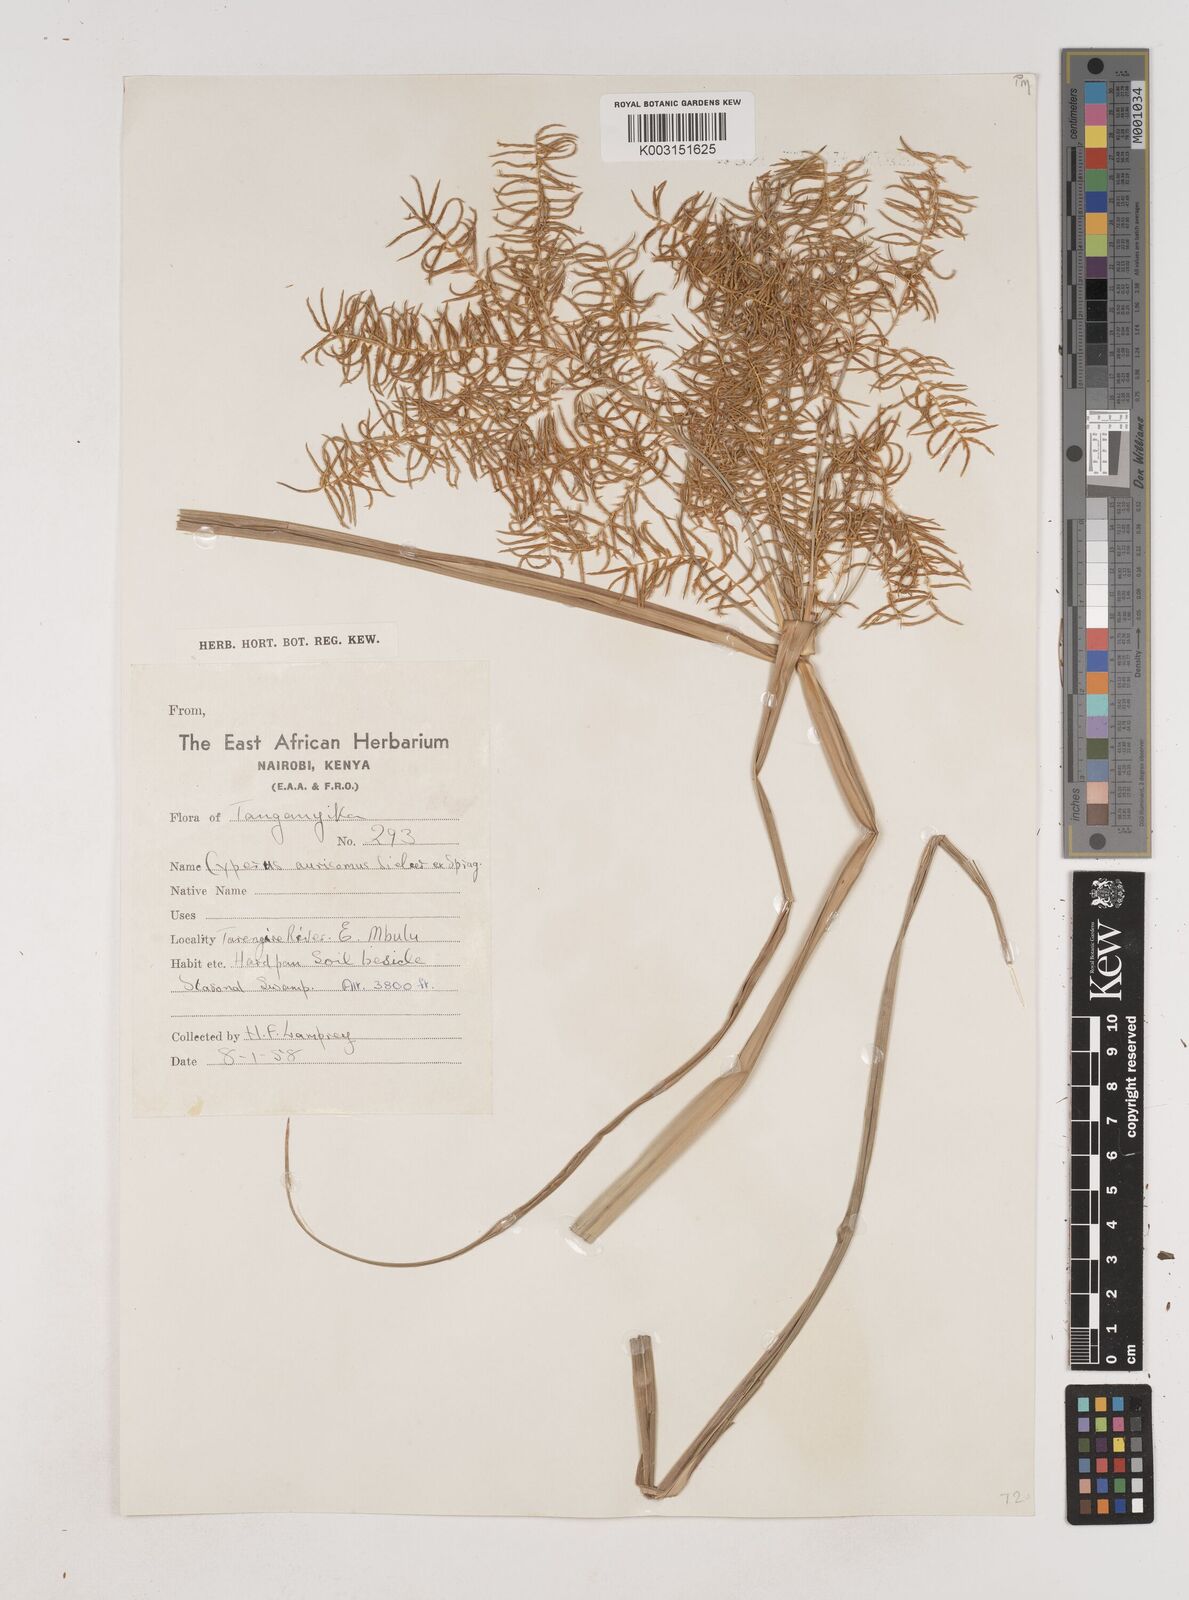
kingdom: Plantae
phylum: Tracheophyta
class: Liliopsida
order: Poales
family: Cyperaceae
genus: Cyperus
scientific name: Cyperus digitatus
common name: Finger flatsedge
